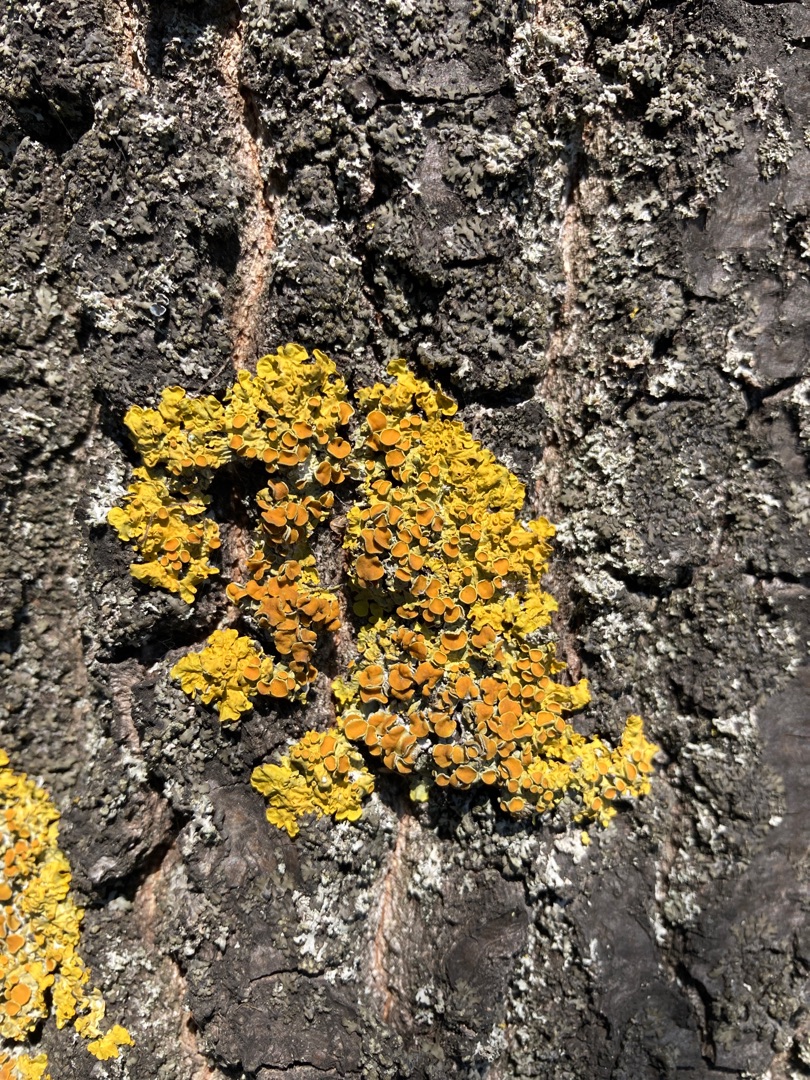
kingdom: Fungi
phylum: Ascomycota
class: Lecanoromycetes
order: Teloschistales
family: Teloschistaceae
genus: Xanthoria
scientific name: Xanthoria parietina
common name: Almindelig væggelav
